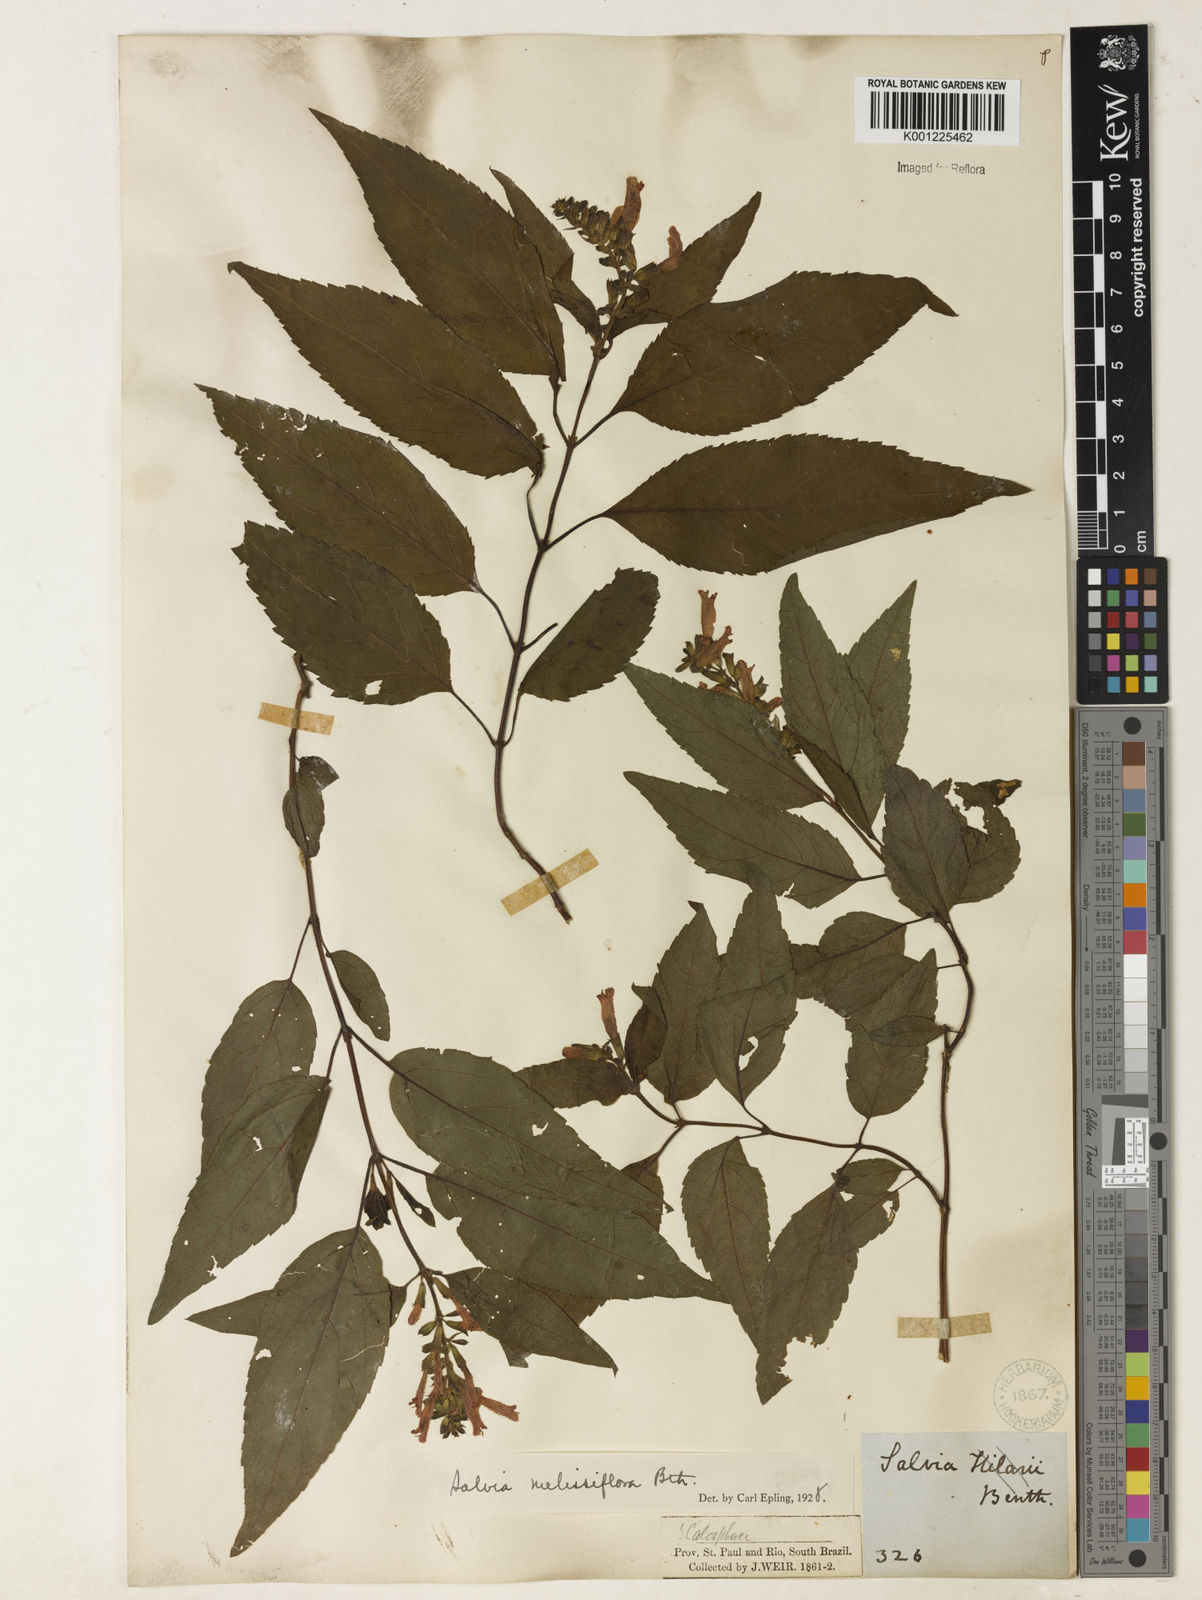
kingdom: Plantae
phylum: Tracheophyta
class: Magnoliopsida
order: Lamiales
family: Lamiaceae
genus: Salvia
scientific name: Salvia melissiflora
